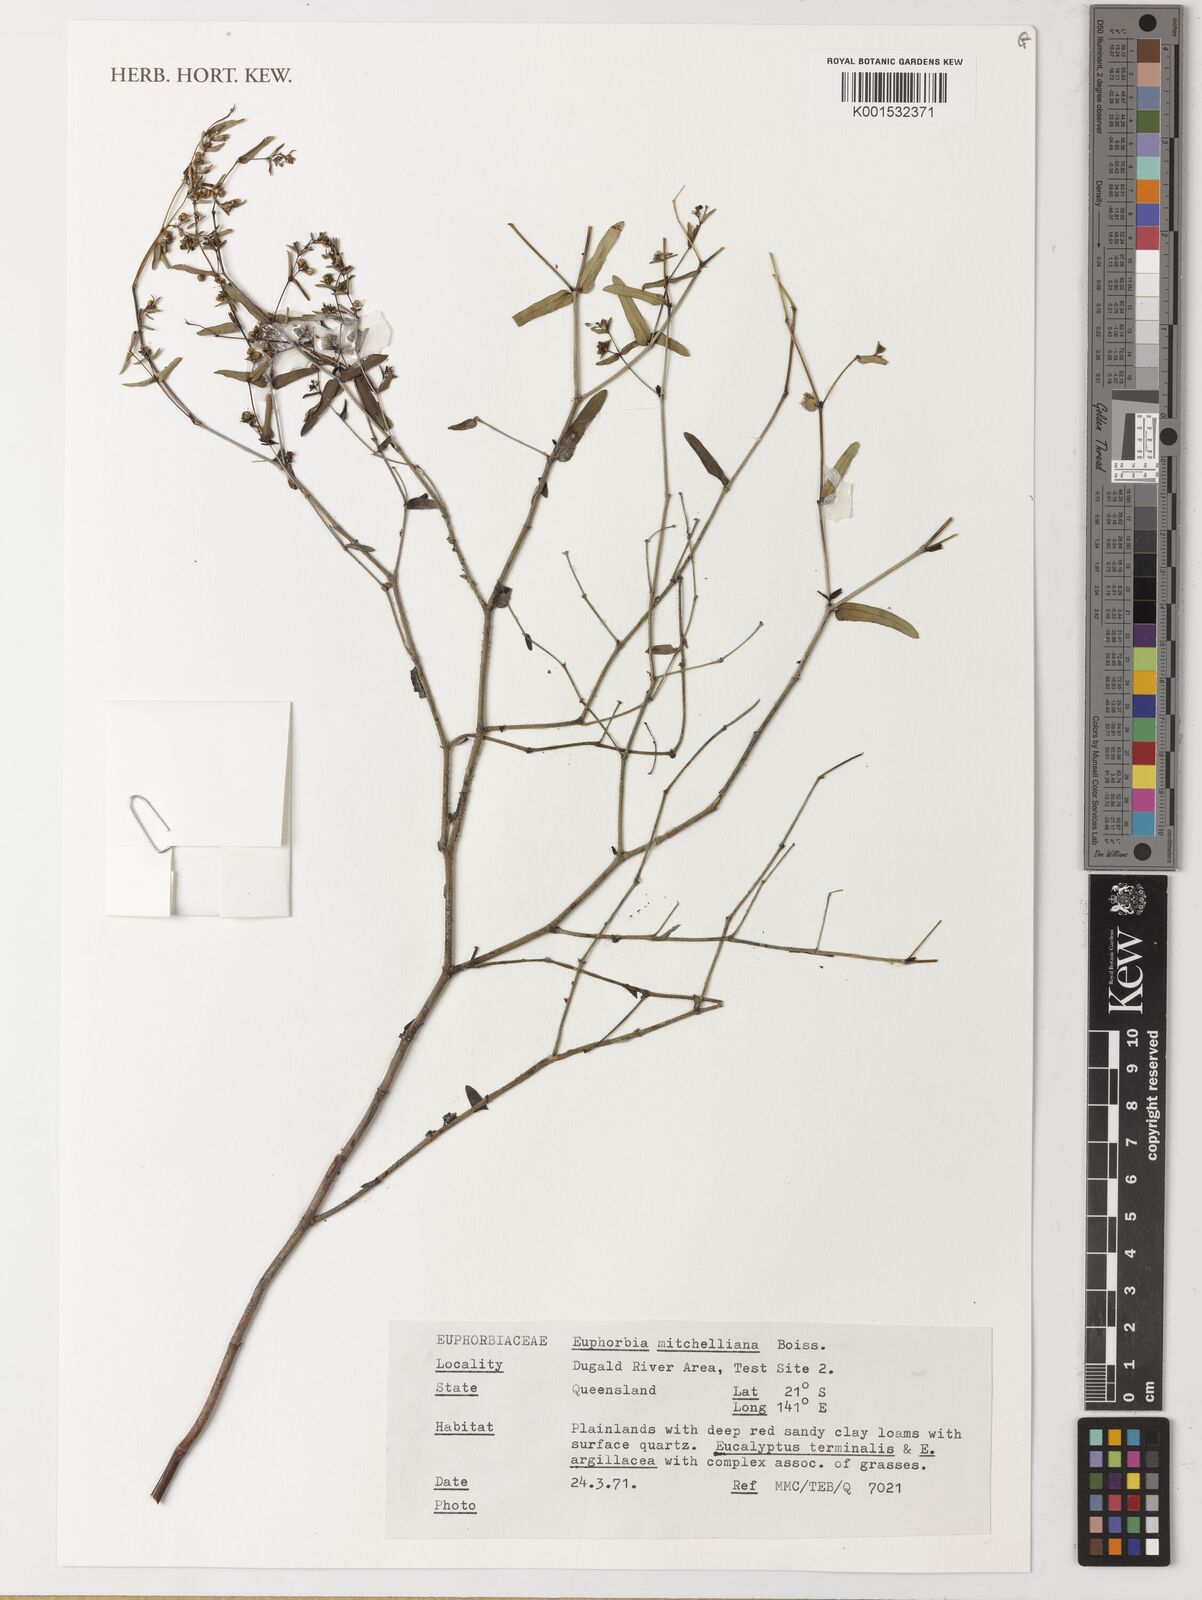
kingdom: Plantae
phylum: Tracheophyta
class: Magnoliopsida
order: Malpighiales
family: Euphorbiaceae
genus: Euphorbia
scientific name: Euphorbia mitchelliana
